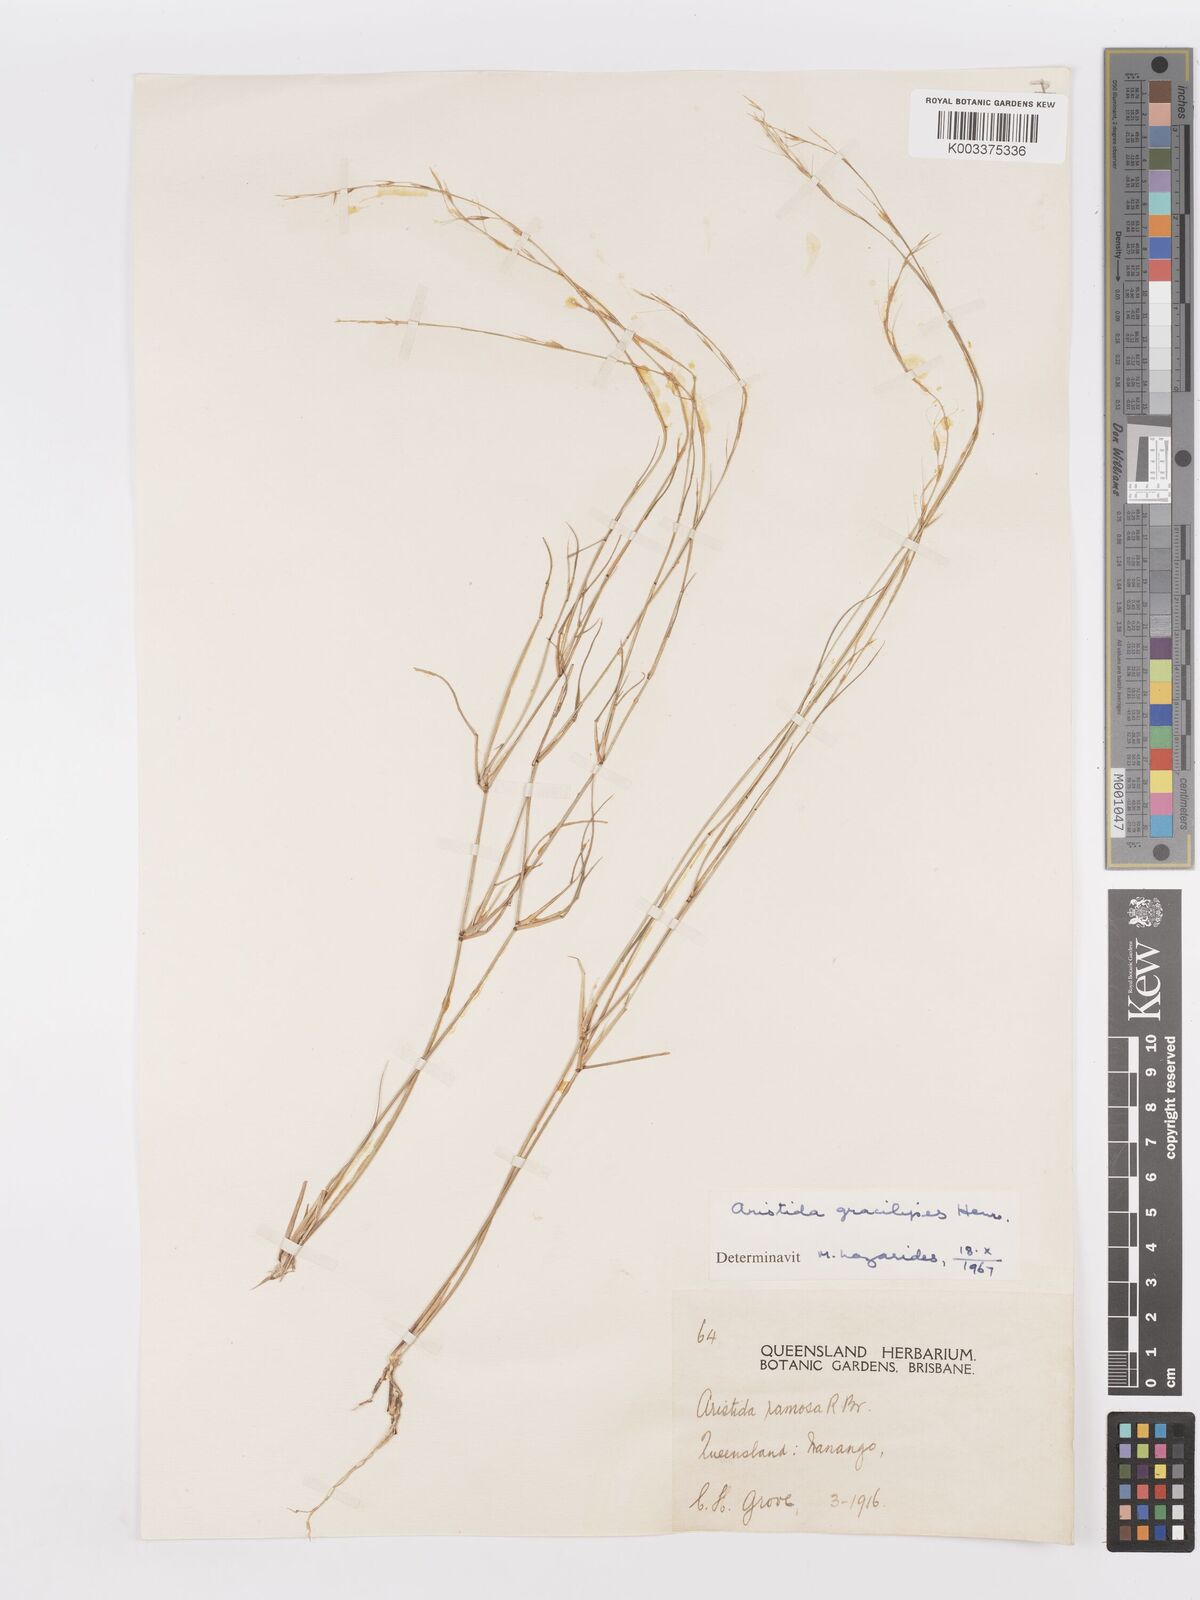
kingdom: Plantae
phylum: Tracheophyta
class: Liliopsida
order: Poales
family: Poaceae
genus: Aristida
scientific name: Aristida gracilipes
